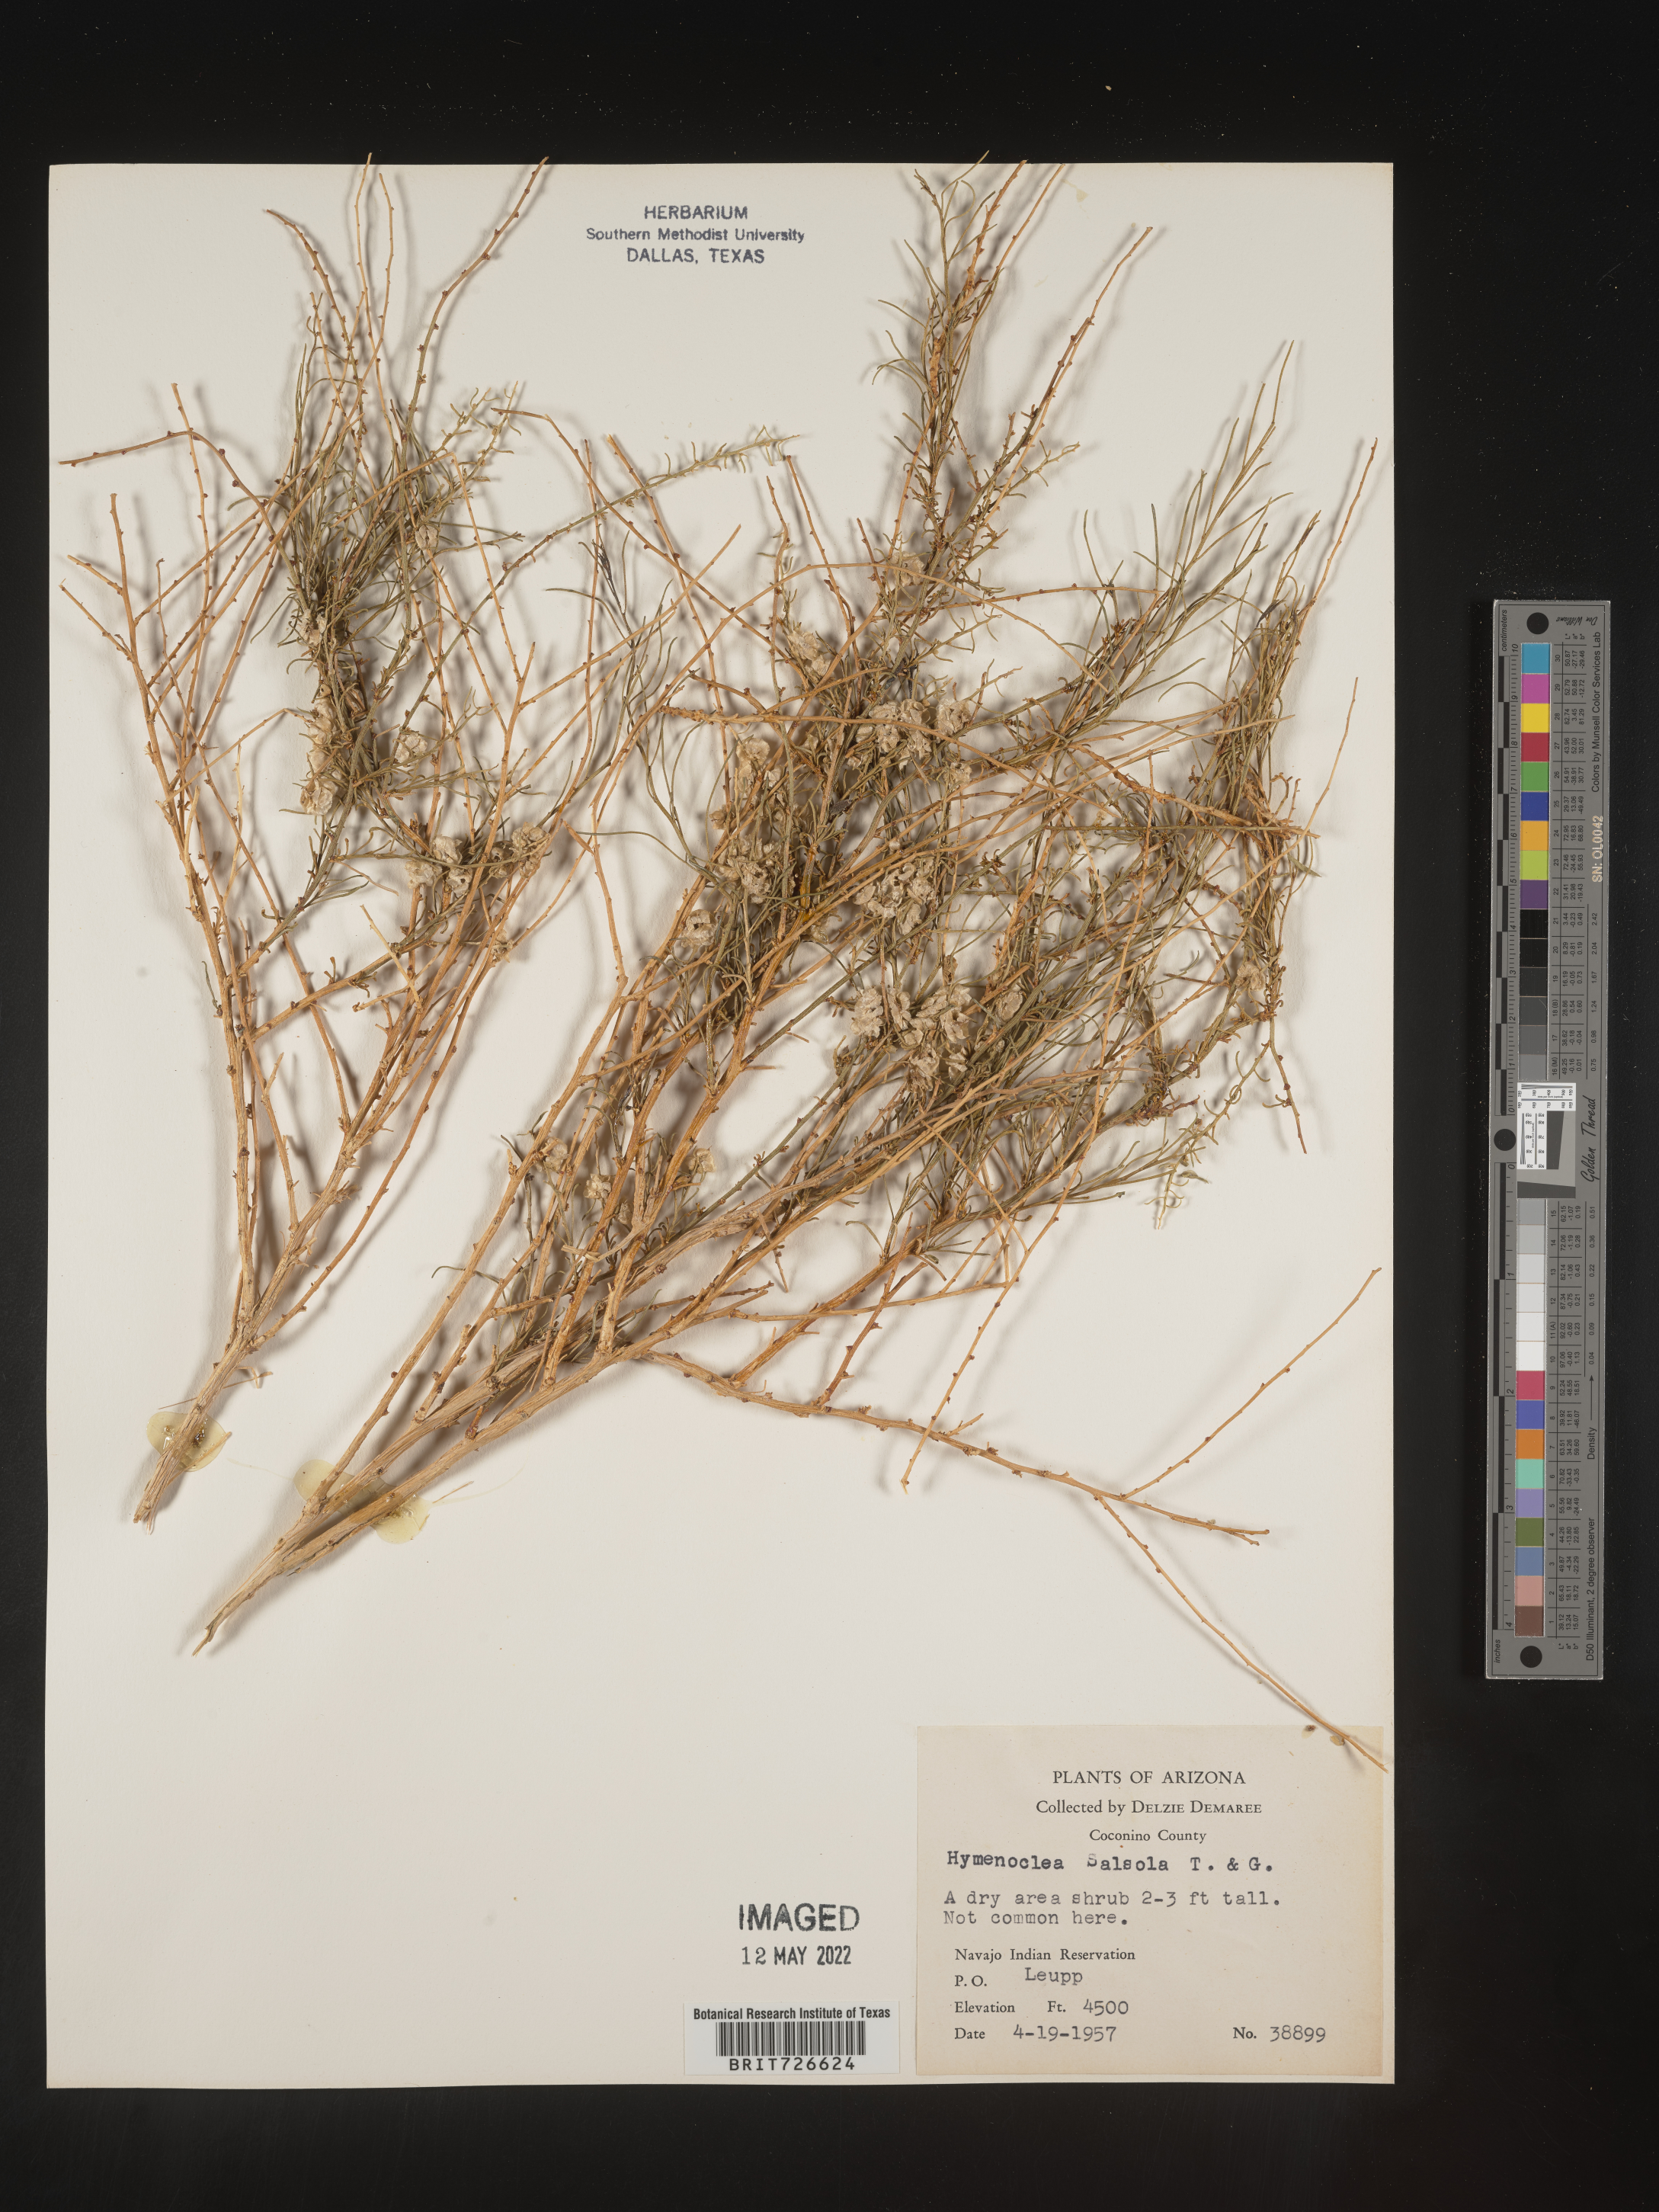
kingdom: Animalia
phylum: Arthropoda
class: Insecta
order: Lepidoptera
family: Sesiidae
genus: Hymenoclea
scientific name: Hymenoclea
